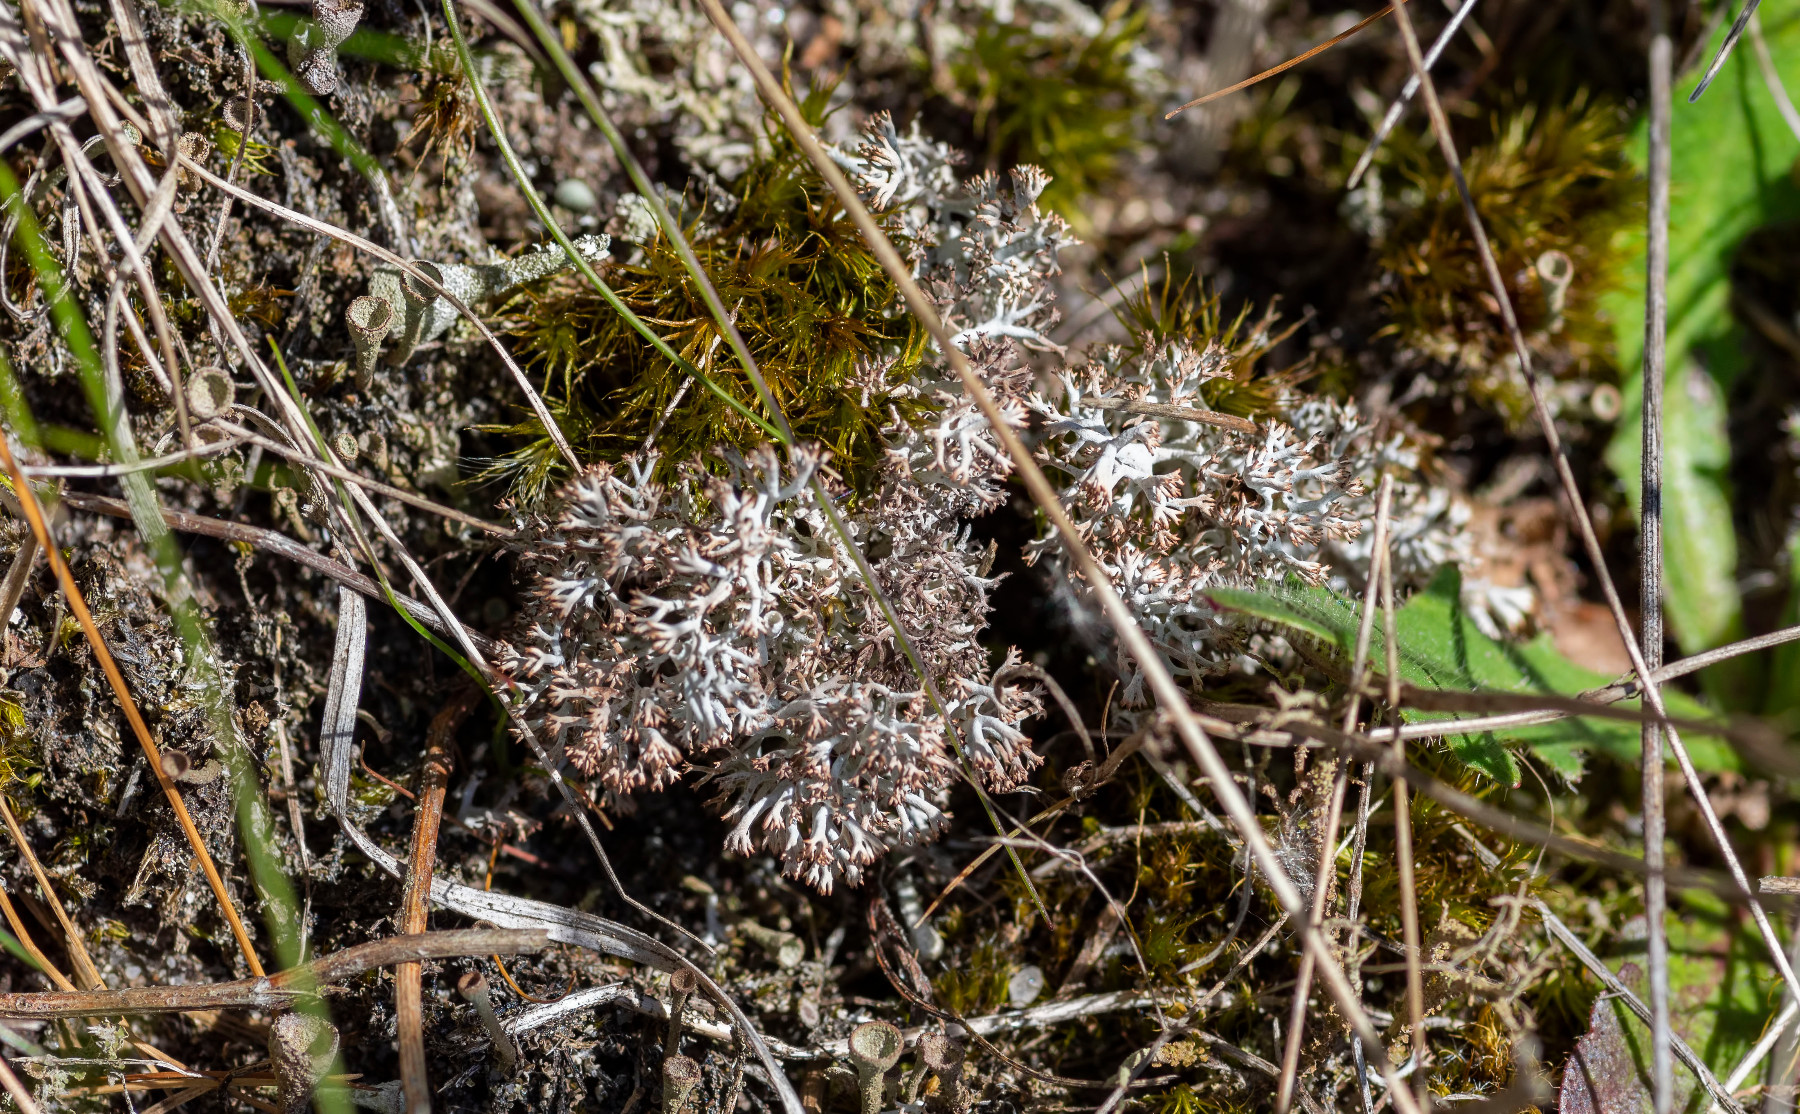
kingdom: Fungi
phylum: Ascomycota
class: Lecanoromycetes
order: Lecanorales
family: Cladoniaceae
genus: Cladonia
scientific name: Cladonia rangiferina
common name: askegrå rensdyrlav
